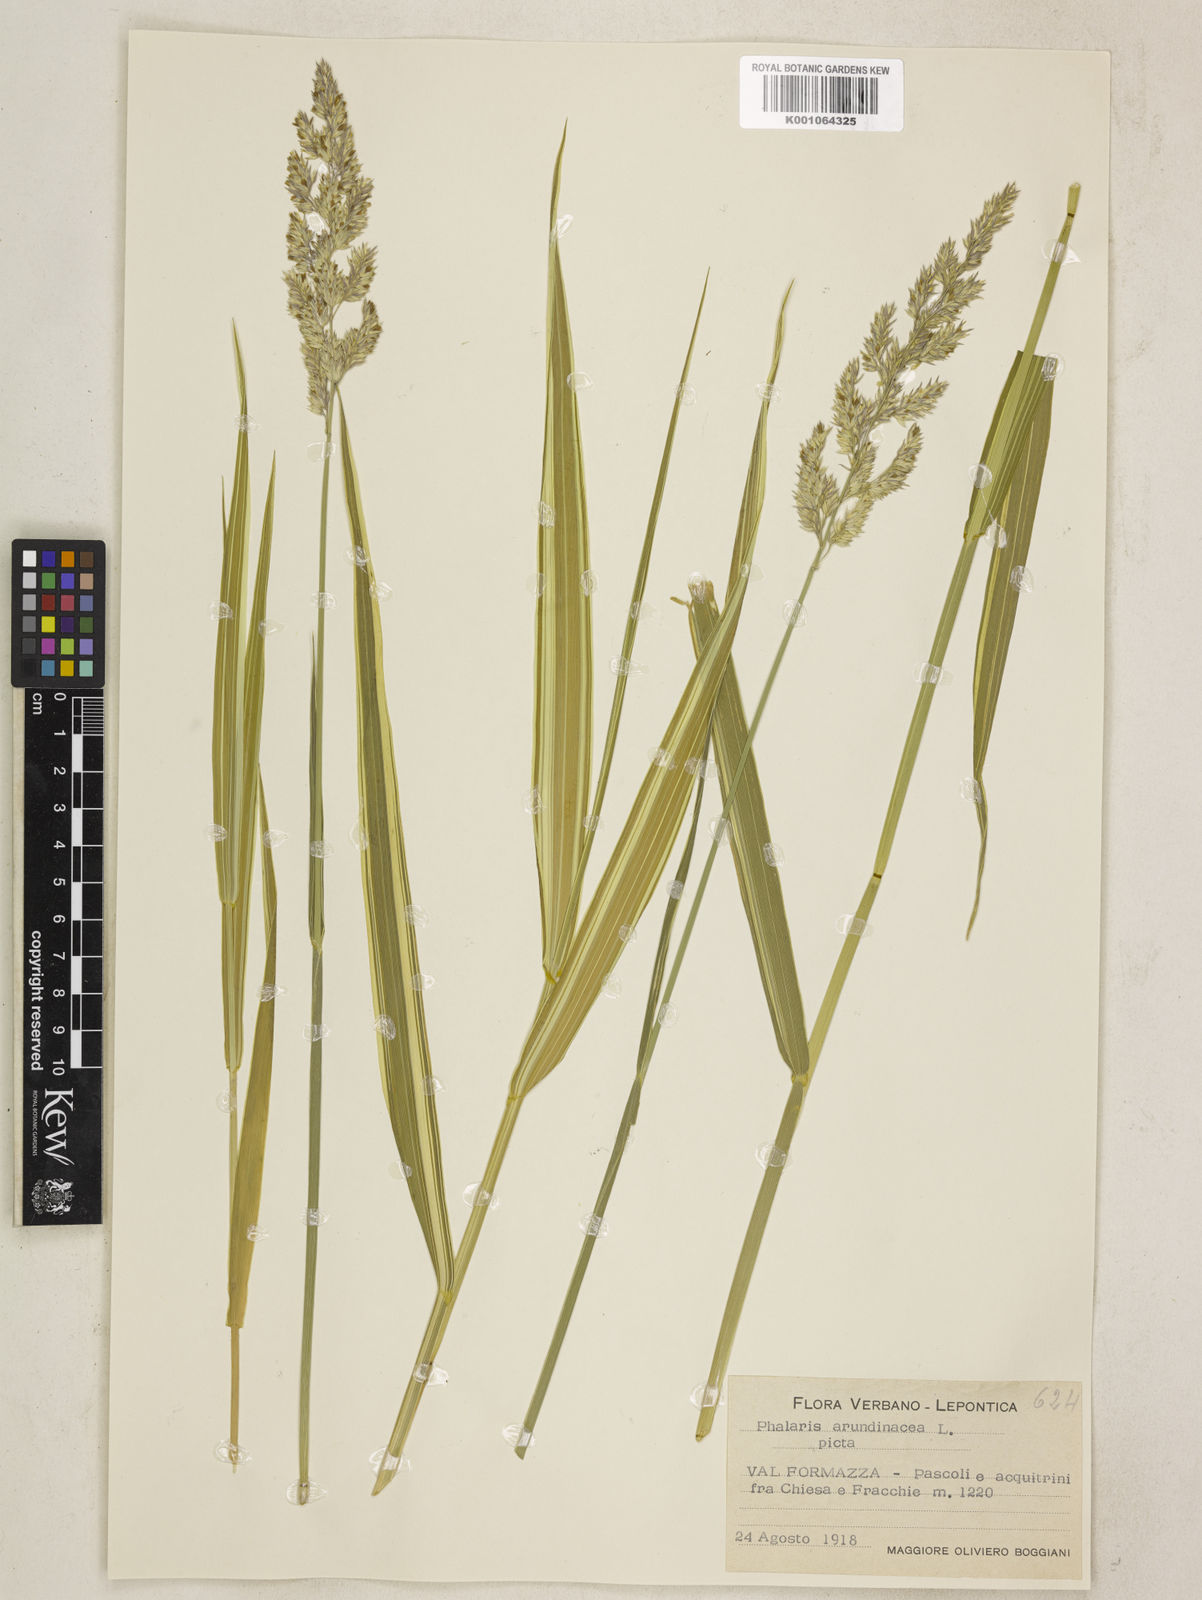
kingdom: Plantae
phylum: Tracheophyta
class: Liliopsida
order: Poales
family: Poaceae
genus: Phalaris
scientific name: Phalaris arundinacea
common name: Reed canary-grass
